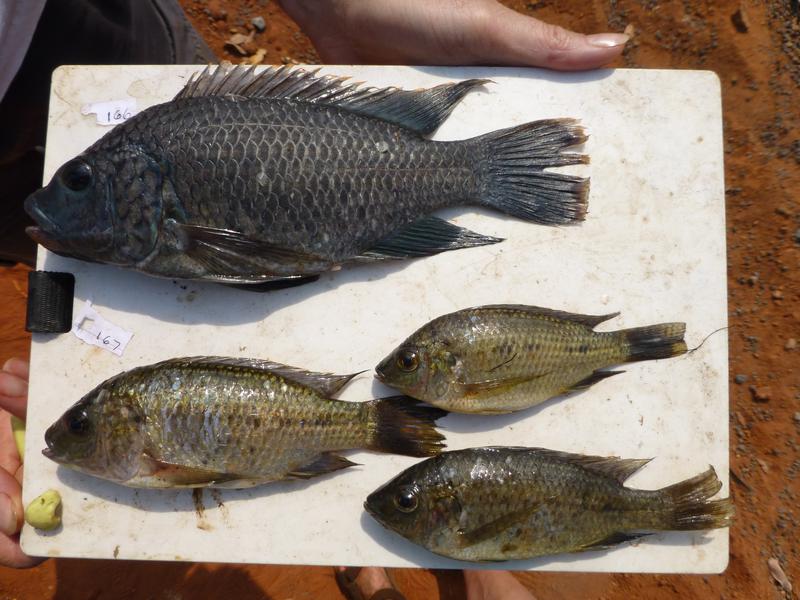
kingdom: Animalia
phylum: Chordata
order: Perciformes
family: Cichlidae
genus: Oreochromis
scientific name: Oreochromis shiranus
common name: Chilwa tilapia
